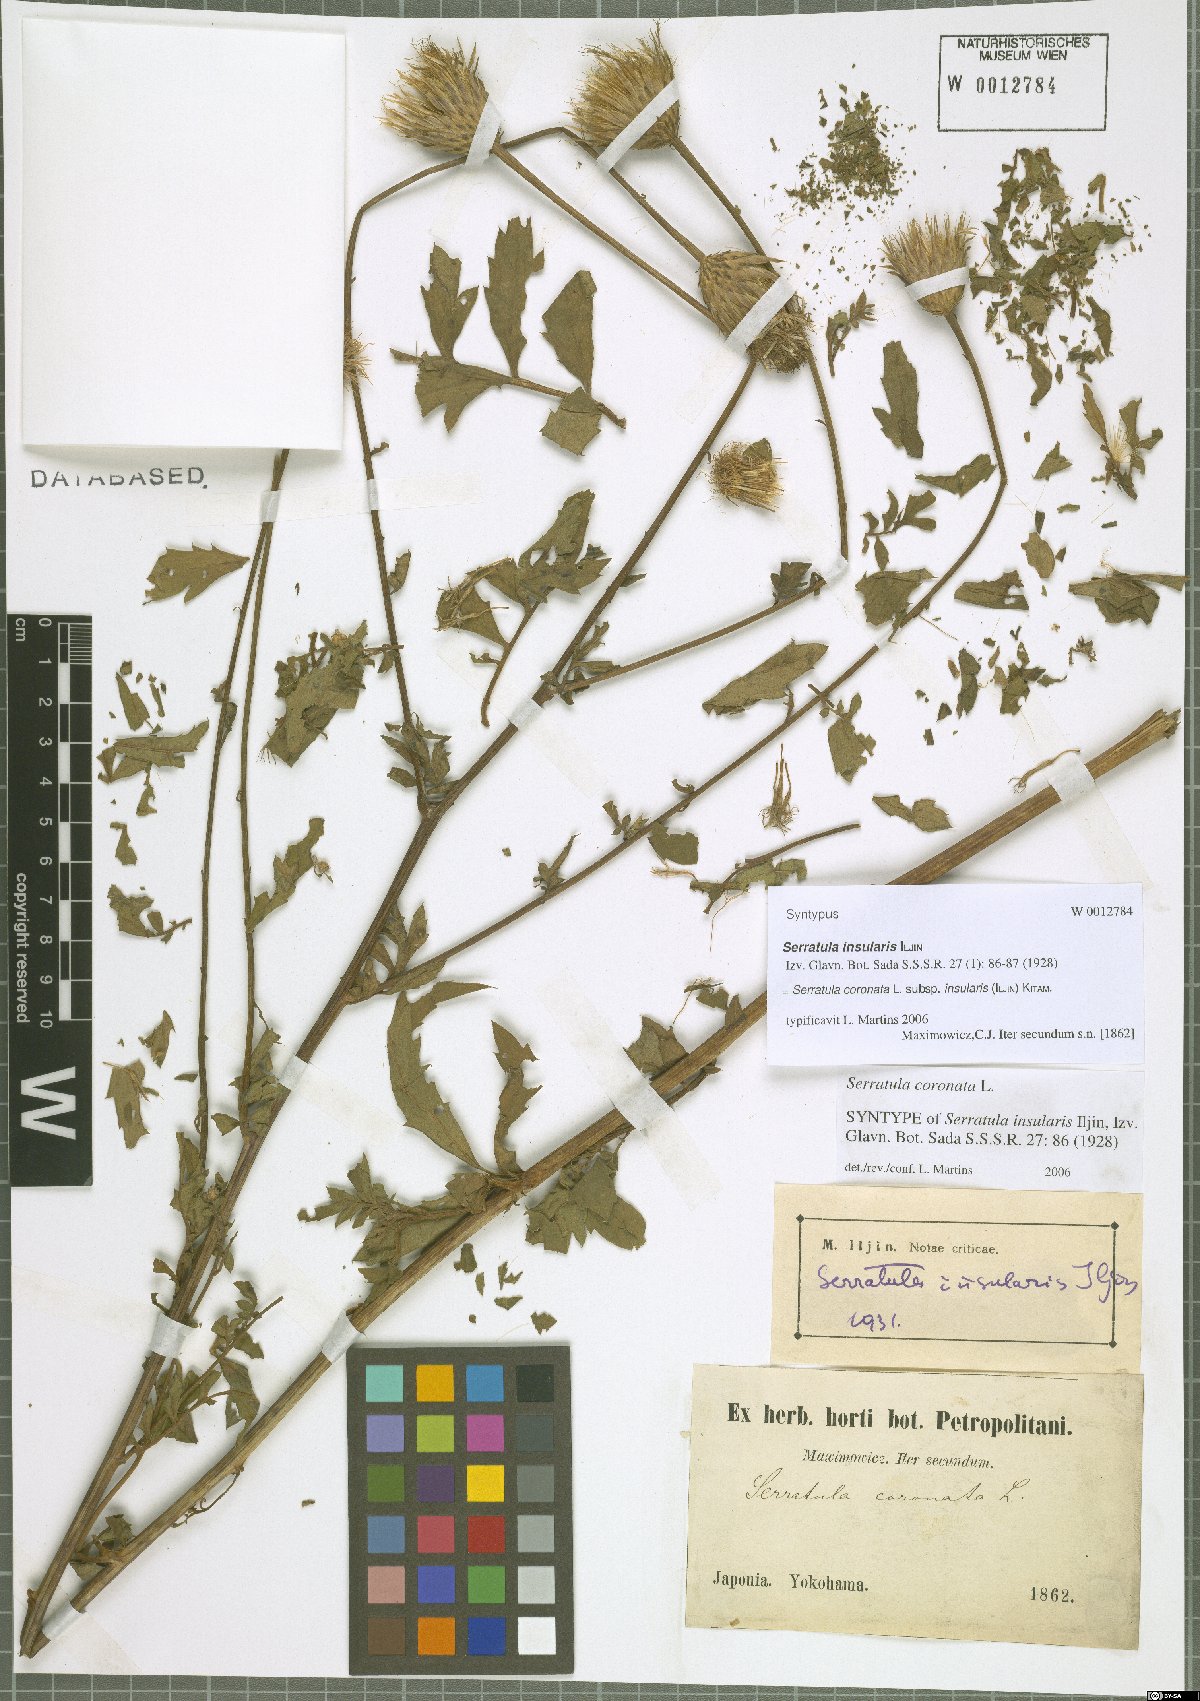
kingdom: Plantae
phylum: Tracheophyta
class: Magnoliopsida
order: Asterales
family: Asteraceae
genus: Serratula
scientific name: Serratula coronata
